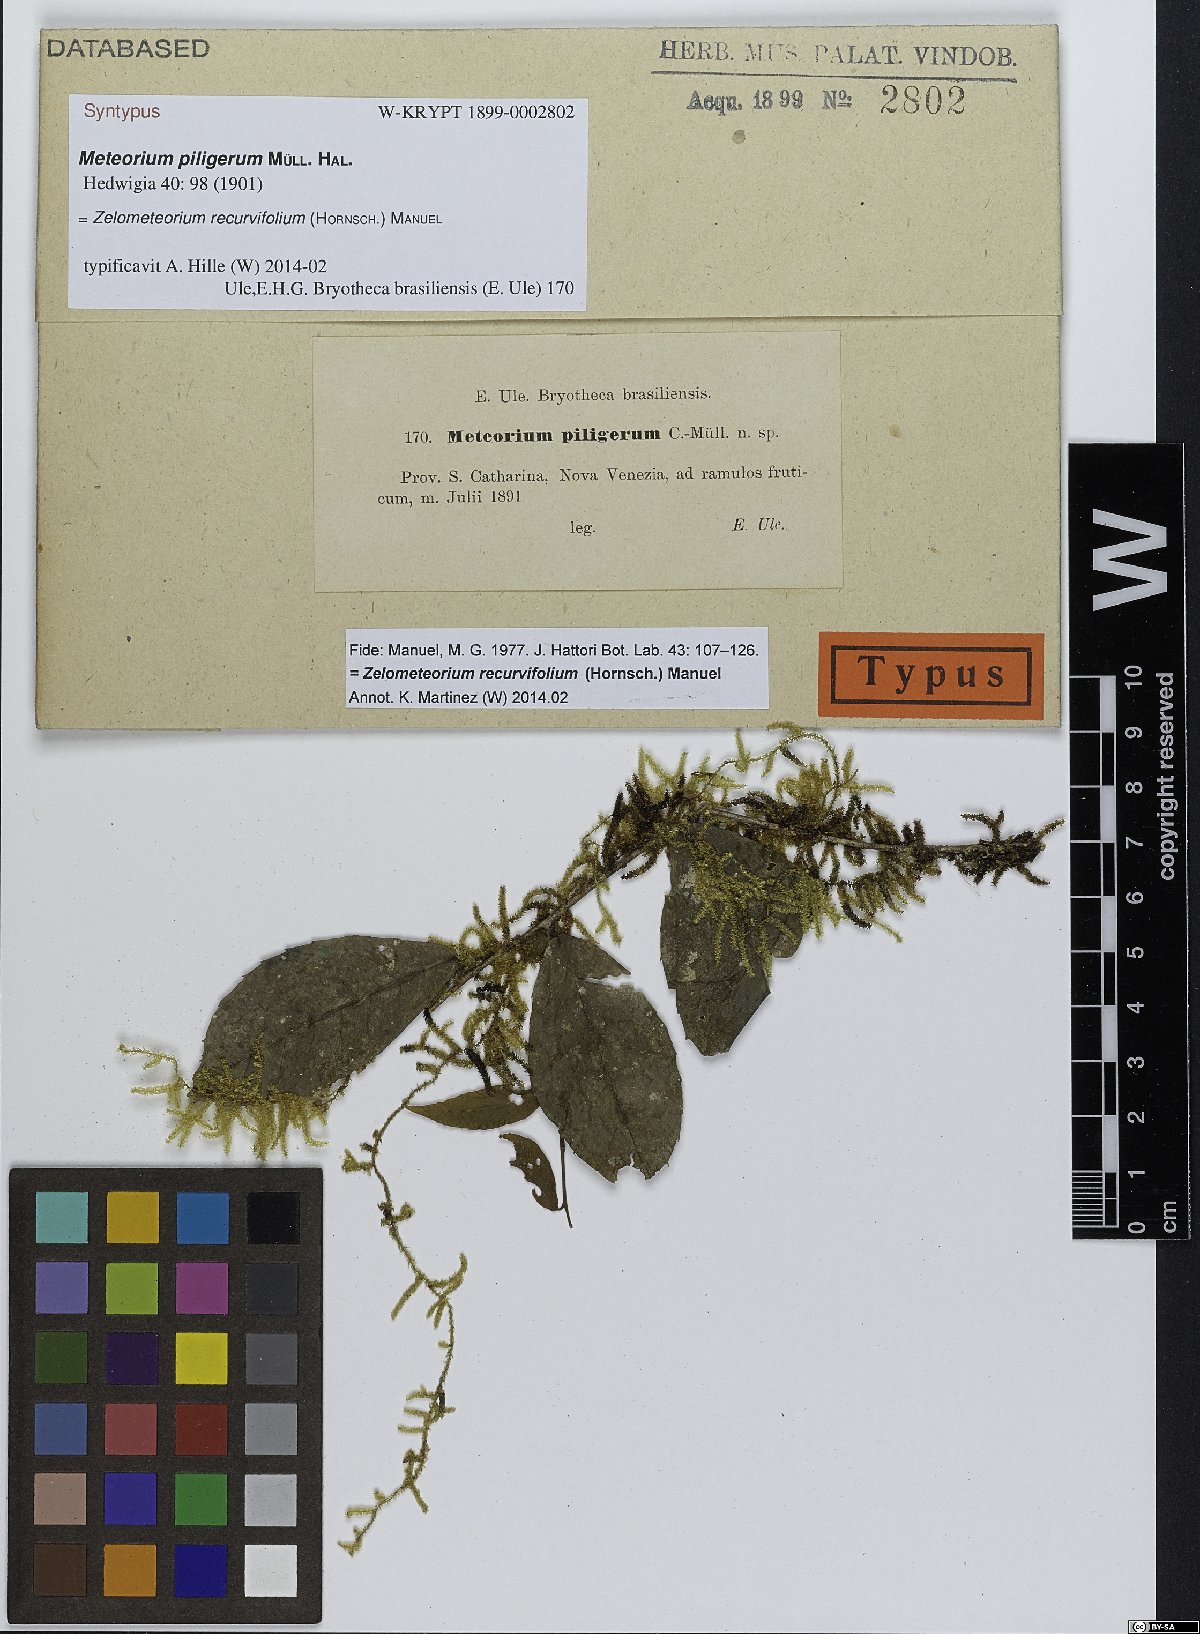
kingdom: Plantae
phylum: Bryophyta
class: Bryopsida
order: Hypnales
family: Brachytheciaceae
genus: Zelometeorium
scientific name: Zelometeorium recurvifolium
